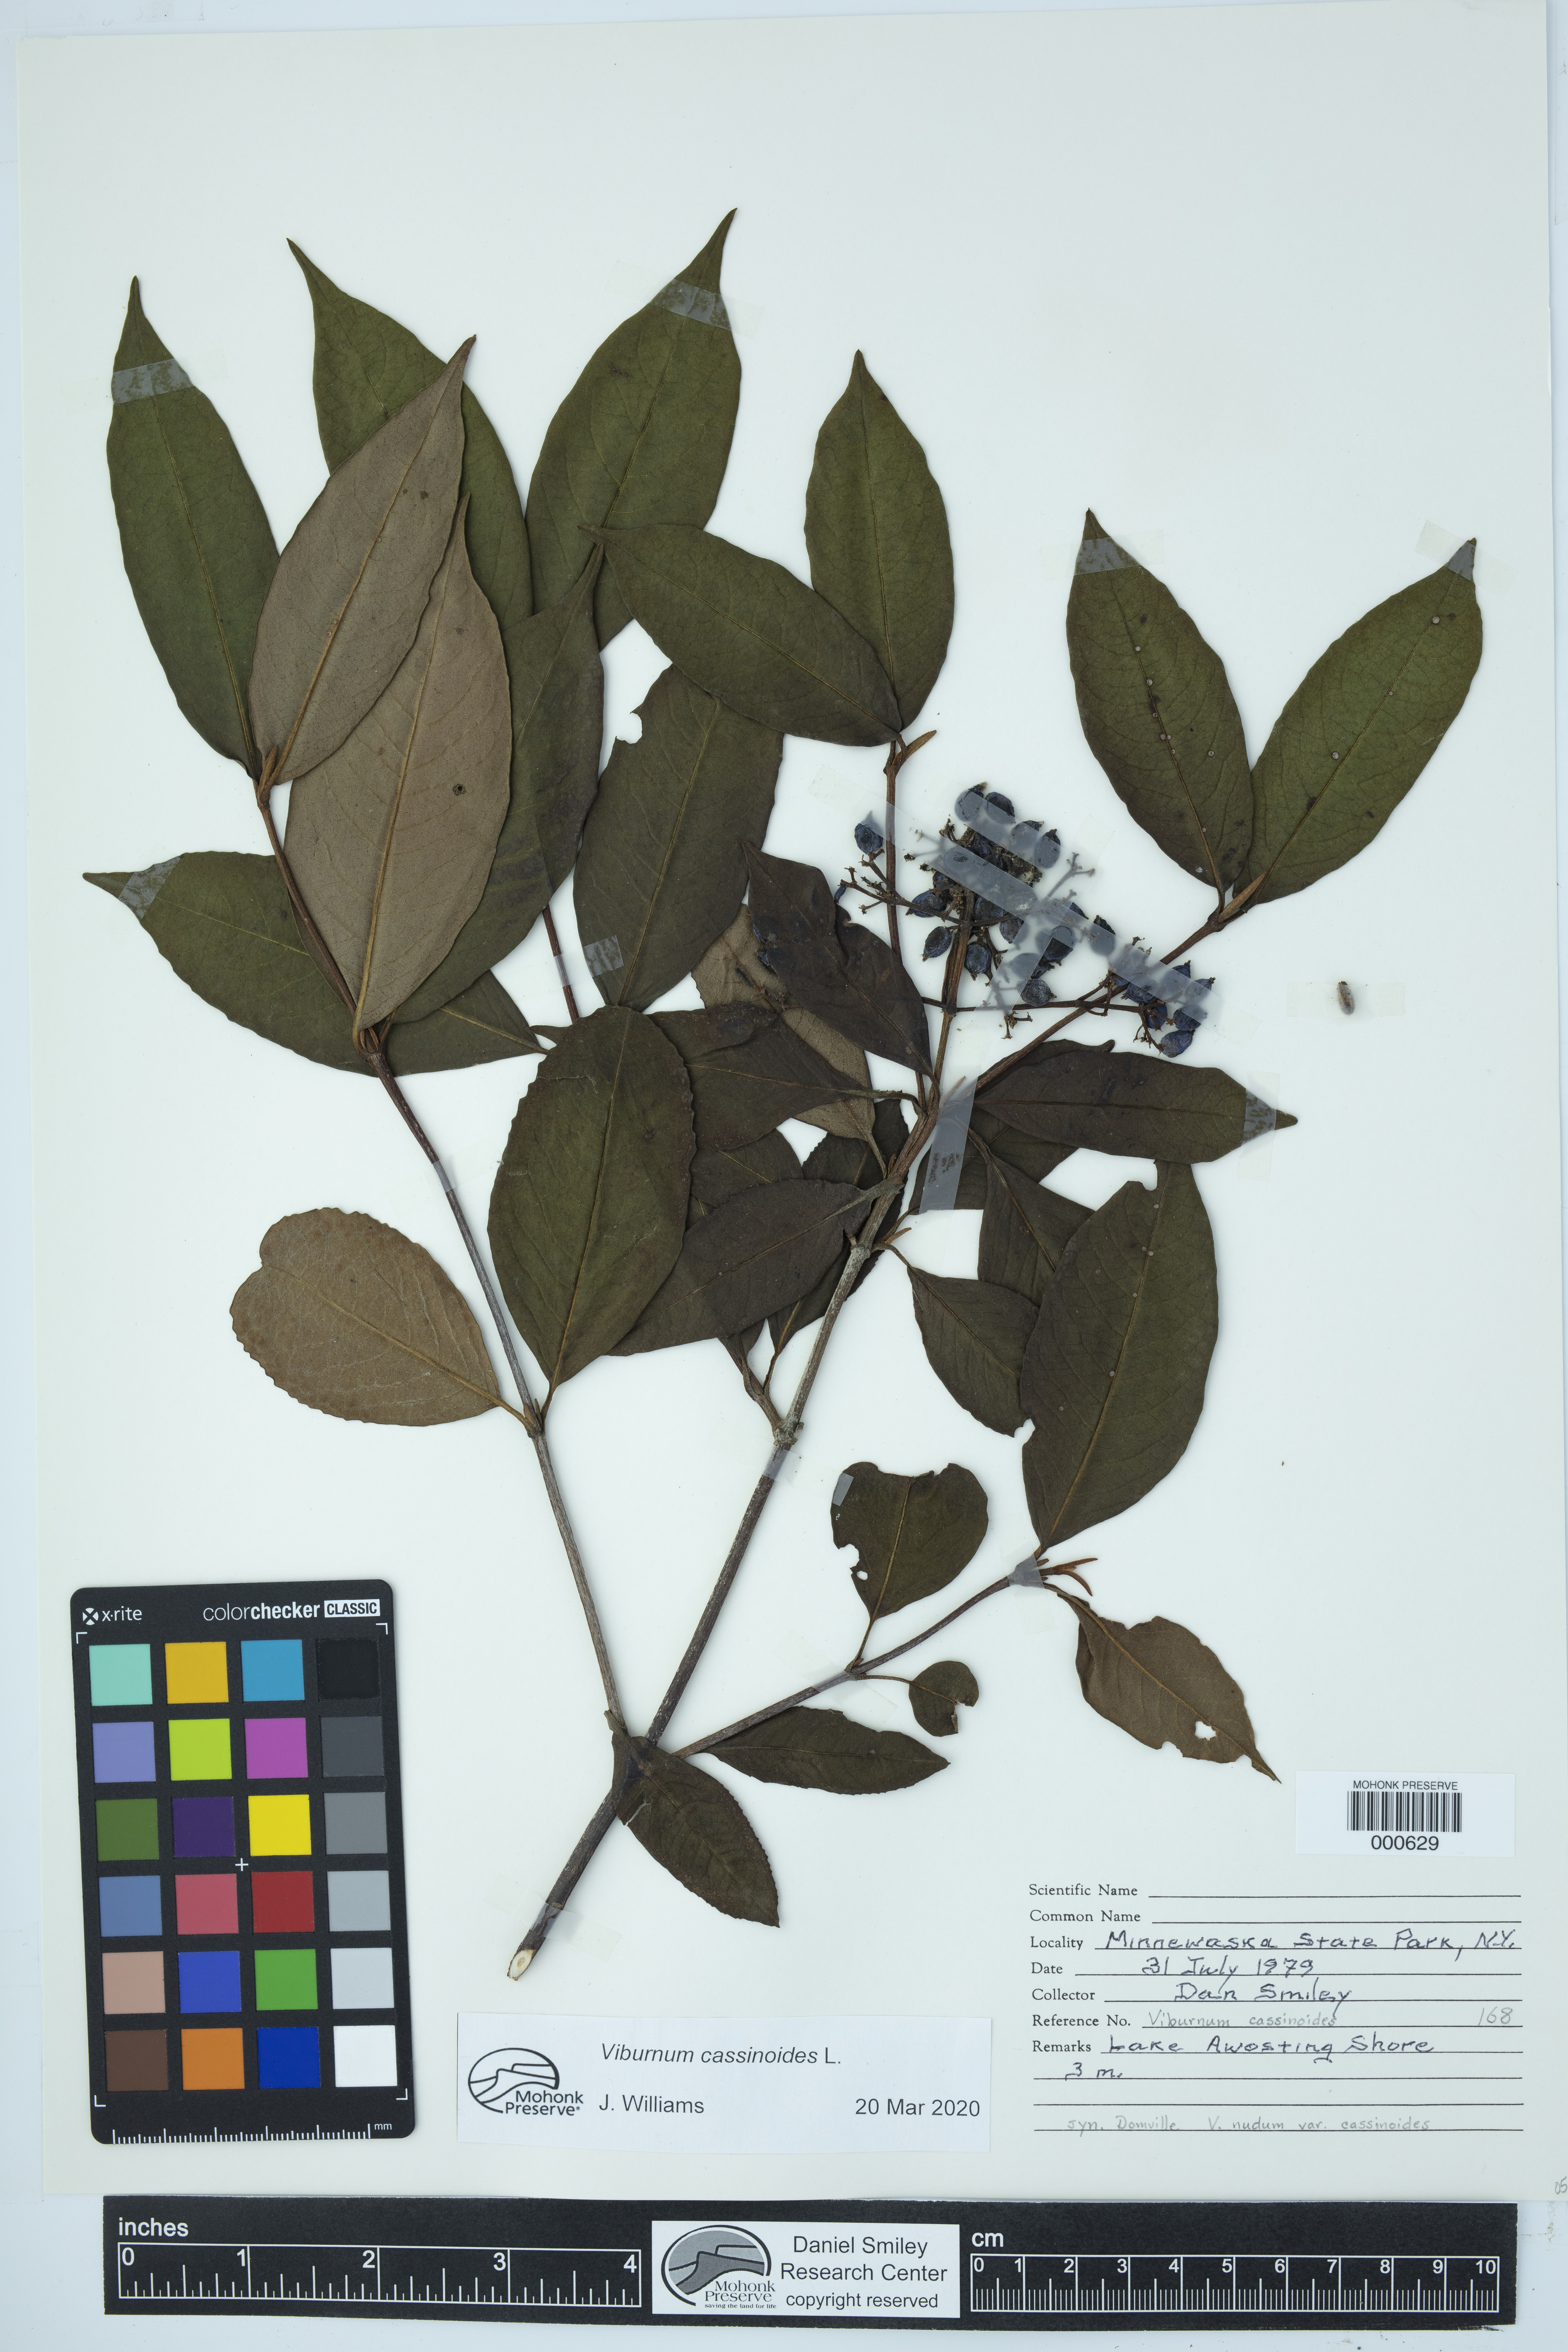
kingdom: Plantae
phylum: Tracheophyta
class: Magnoliopsida
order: Dipsacales
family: Viburnaceae
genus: Viburnum
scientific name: Viburnum nudum
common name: Possum haw
